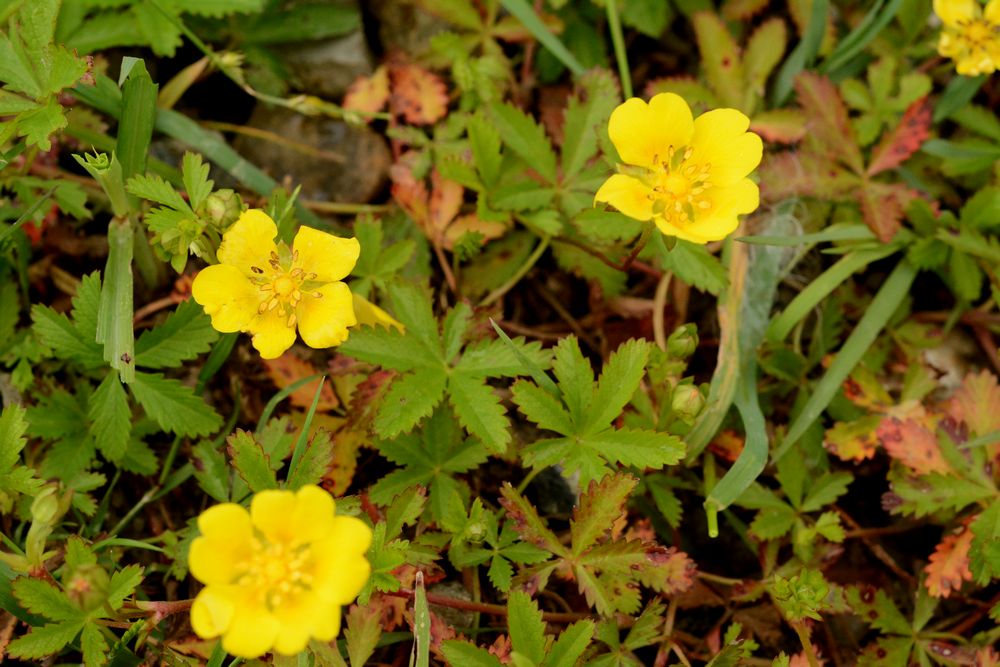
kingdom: Plantae
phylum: Tracheophyta
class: Magnoliopsida
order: Rosales
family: Rosaceae
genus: Potentilla
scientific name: Potentilla reptans
